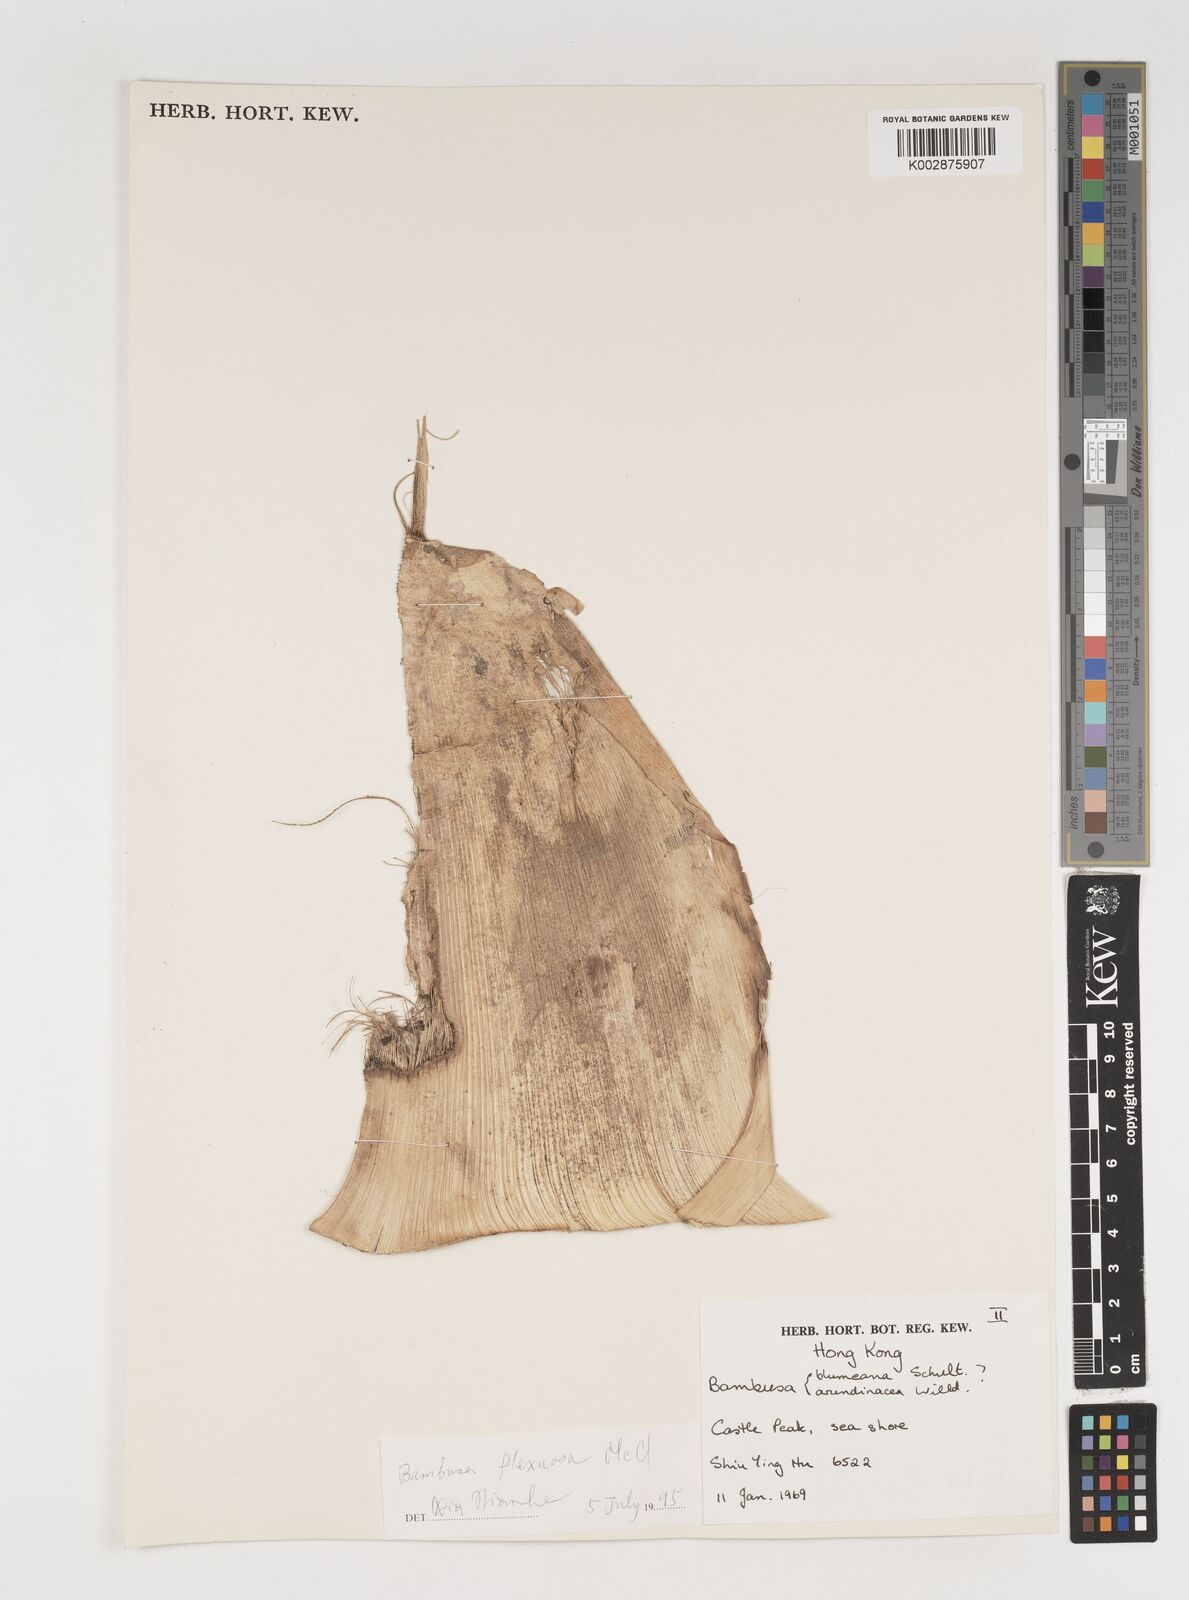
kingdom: Plantae
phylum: Tracheophyta
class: Liliopsida
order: Poales
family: Poaceae
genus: Bambusa
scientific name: Bambusa flexuosa
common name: Lesser thorny bamboo
